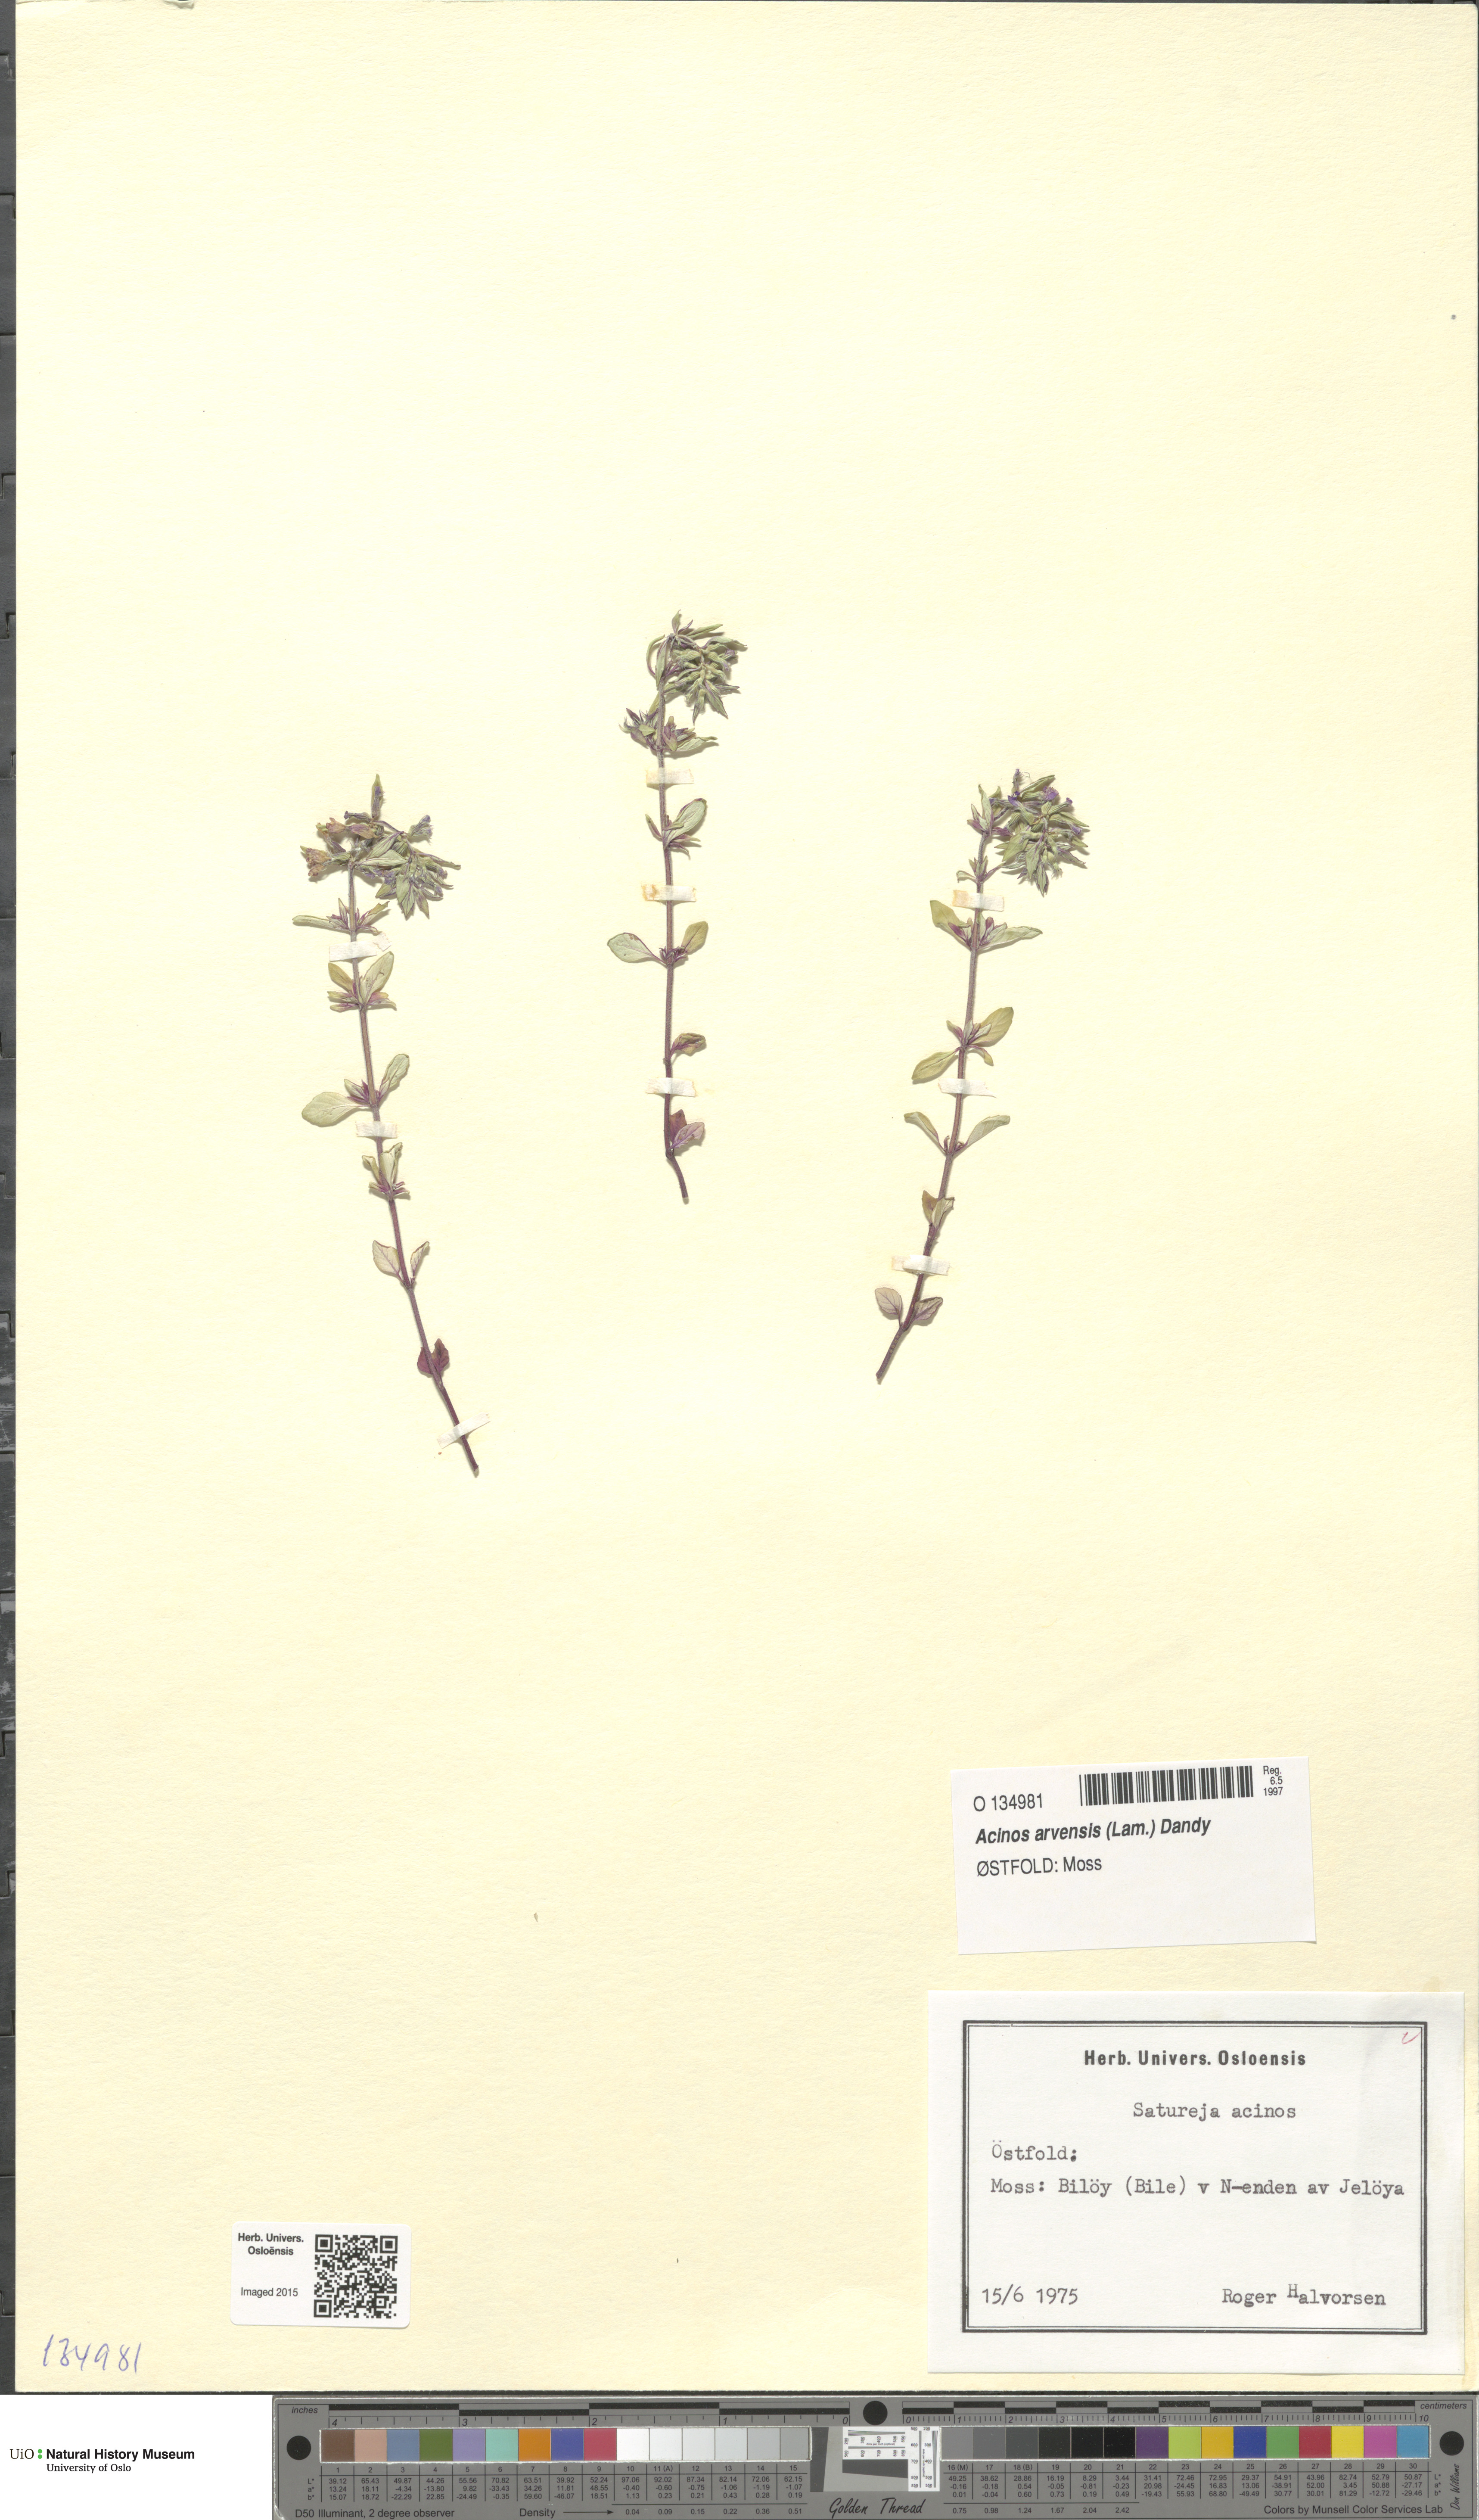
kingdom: Plantae
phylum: Tracheophyta
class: Magnoliopsida
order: Lamiales
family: Lamiaceae
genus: Clinopodium
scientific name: Clinopodium acinos
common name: Basil thyme
